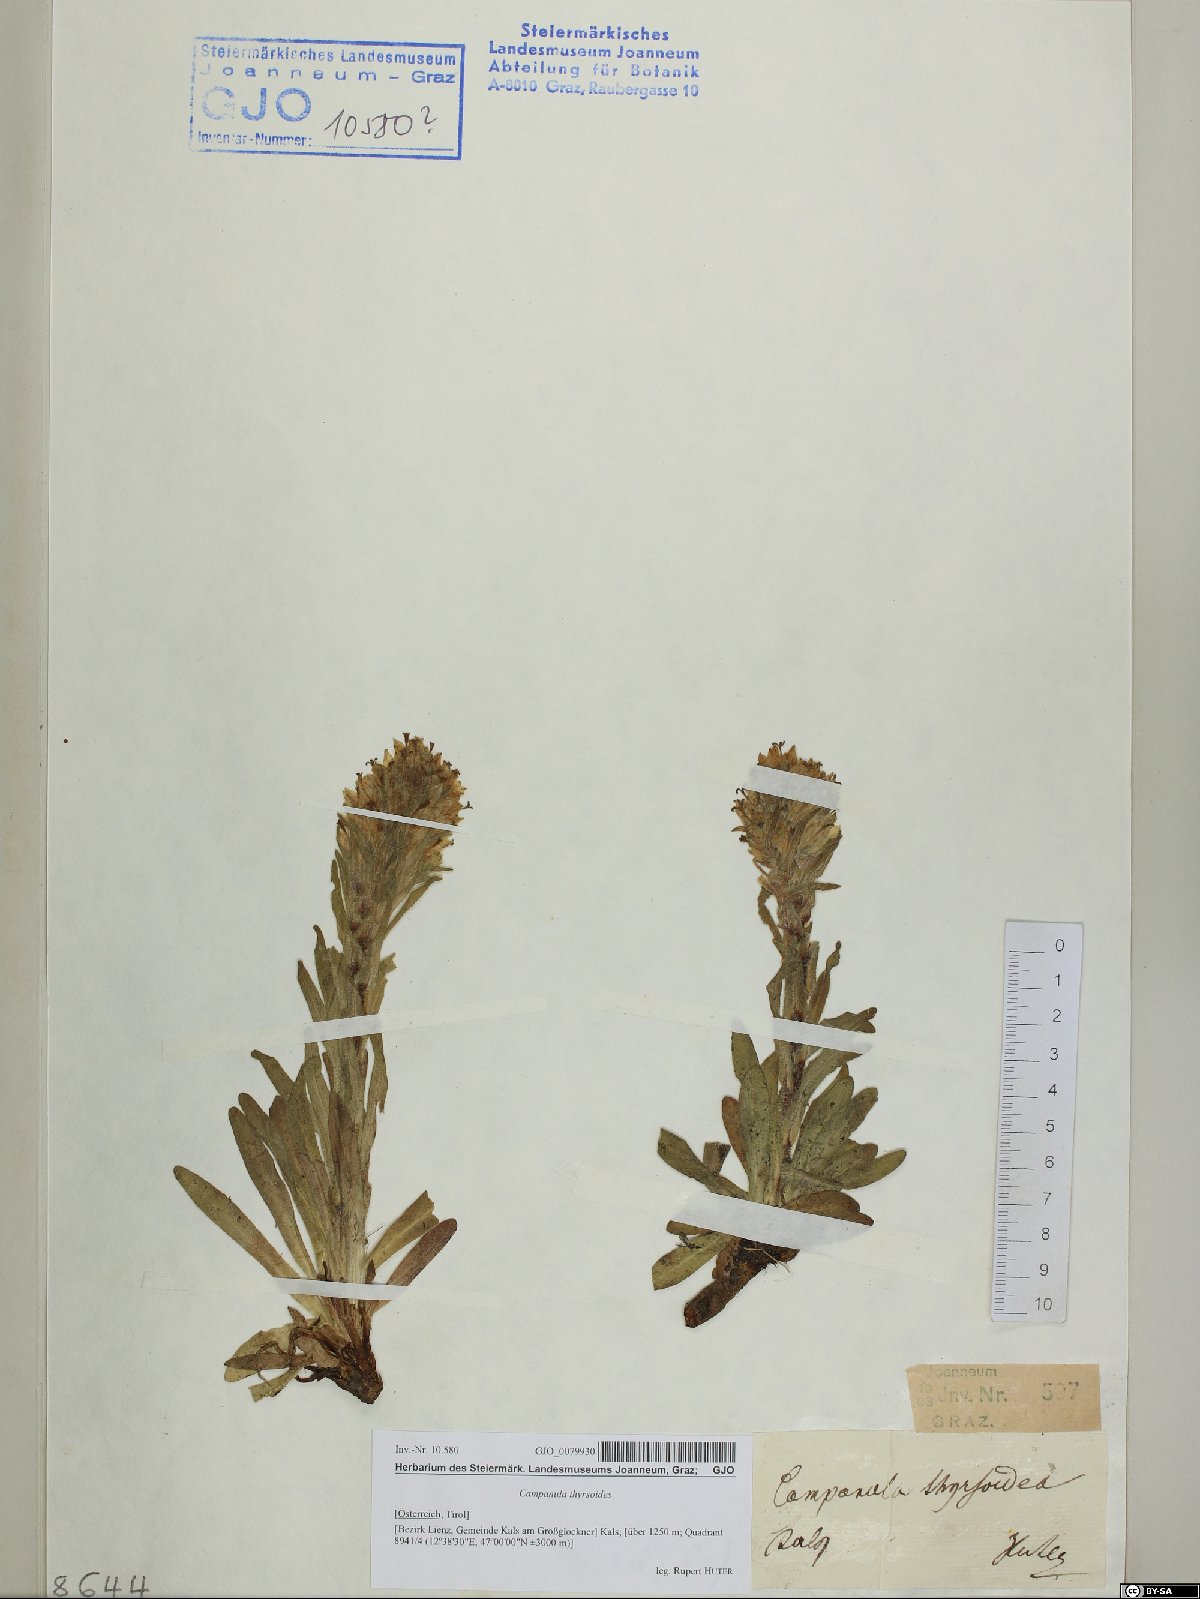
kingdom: Plantae
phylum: Tracheophyta
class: Magnoliopsida
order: Asterales
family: Campanulaceae
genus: Campanula
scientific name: Campanula thyrsoides
